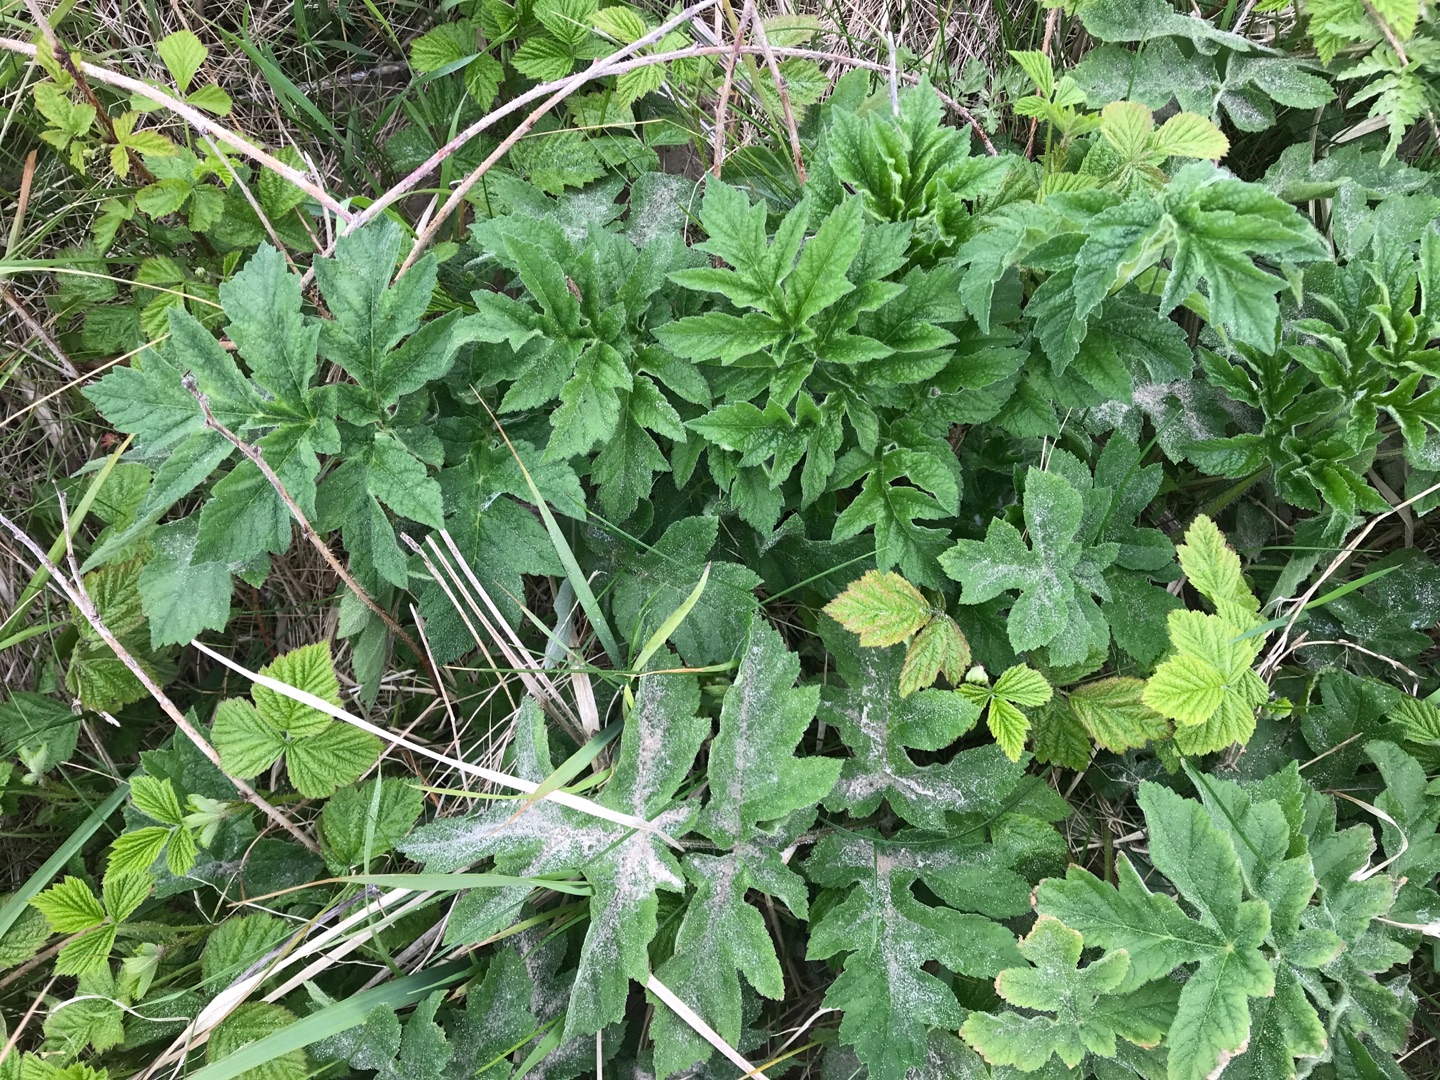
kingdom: Plantae
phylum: Tracheophyta
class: Magnoliopsida
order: Apiales
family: Apiaceae
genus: Heracleum
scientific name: Heracleum sphondylium
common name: Almindelig bjørneklo
